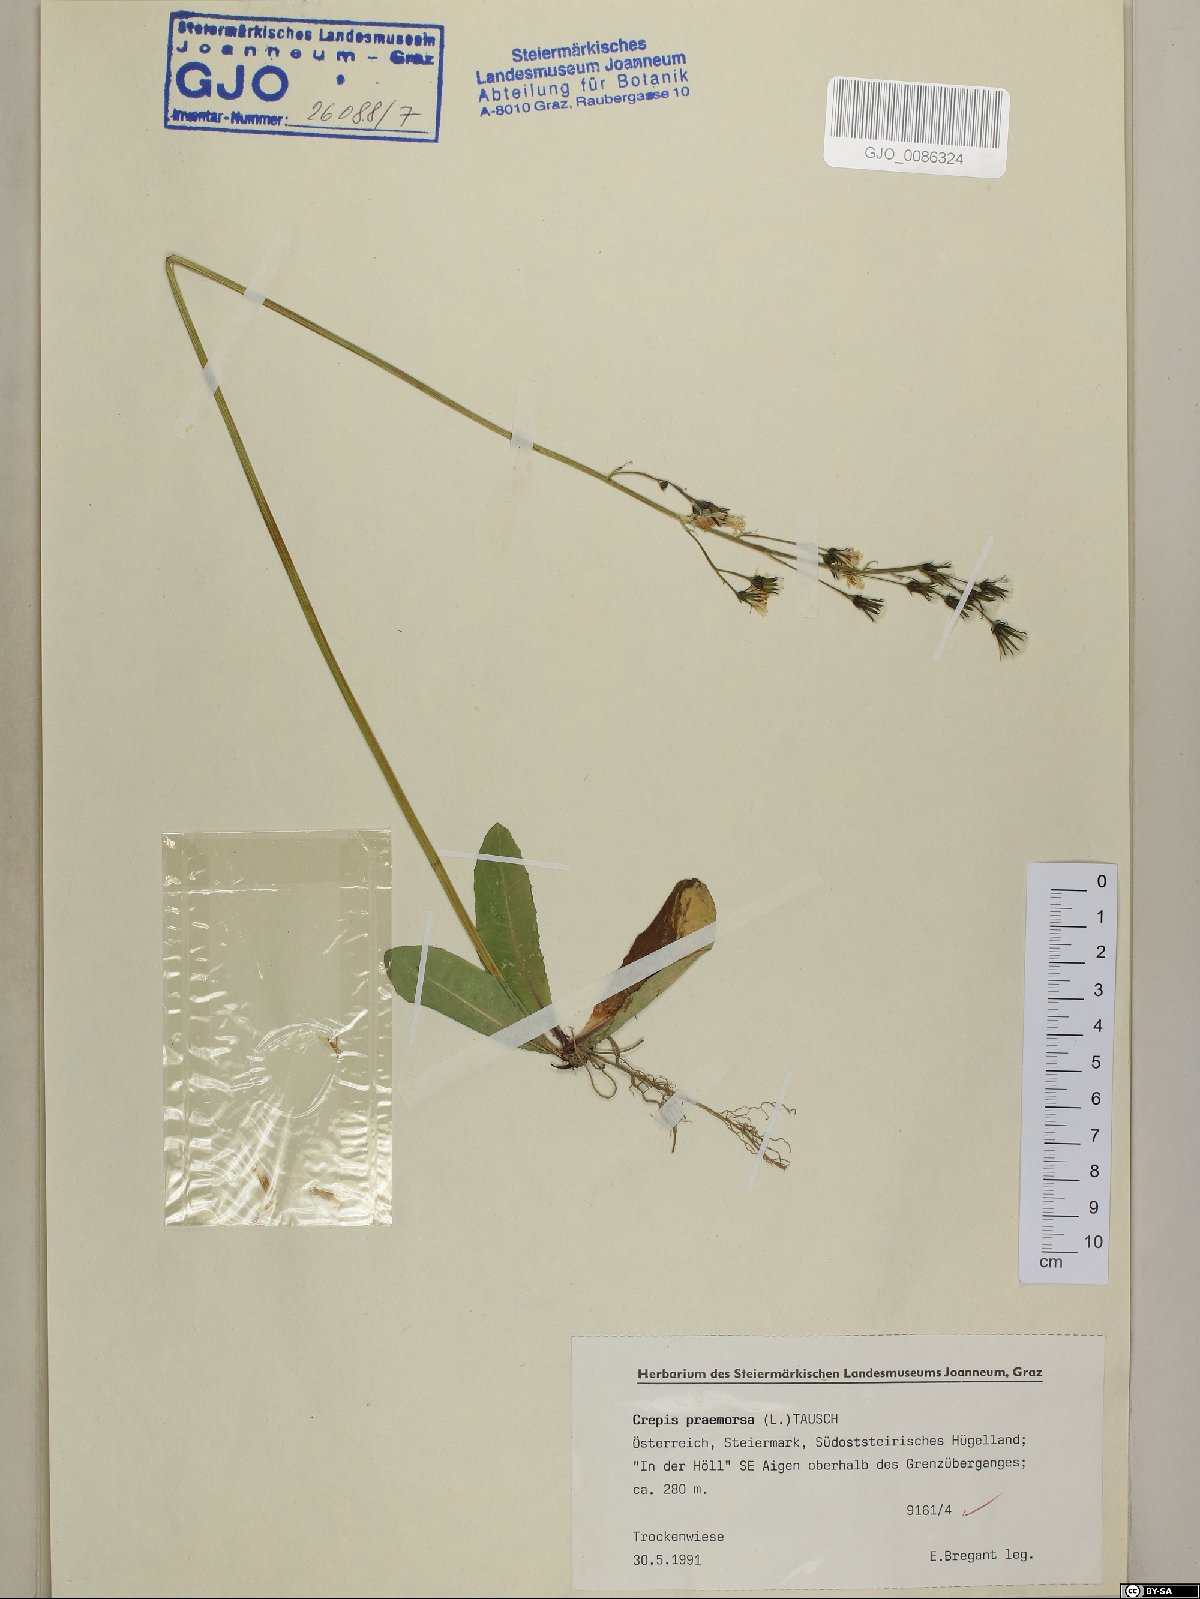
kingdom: Plantae
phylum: Tracheophyta
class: Magnoliopsida
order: Asterales
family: Asteraceae
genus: Crepis
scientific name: Crepis praemorsa
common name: Leafless hawk's-beard
